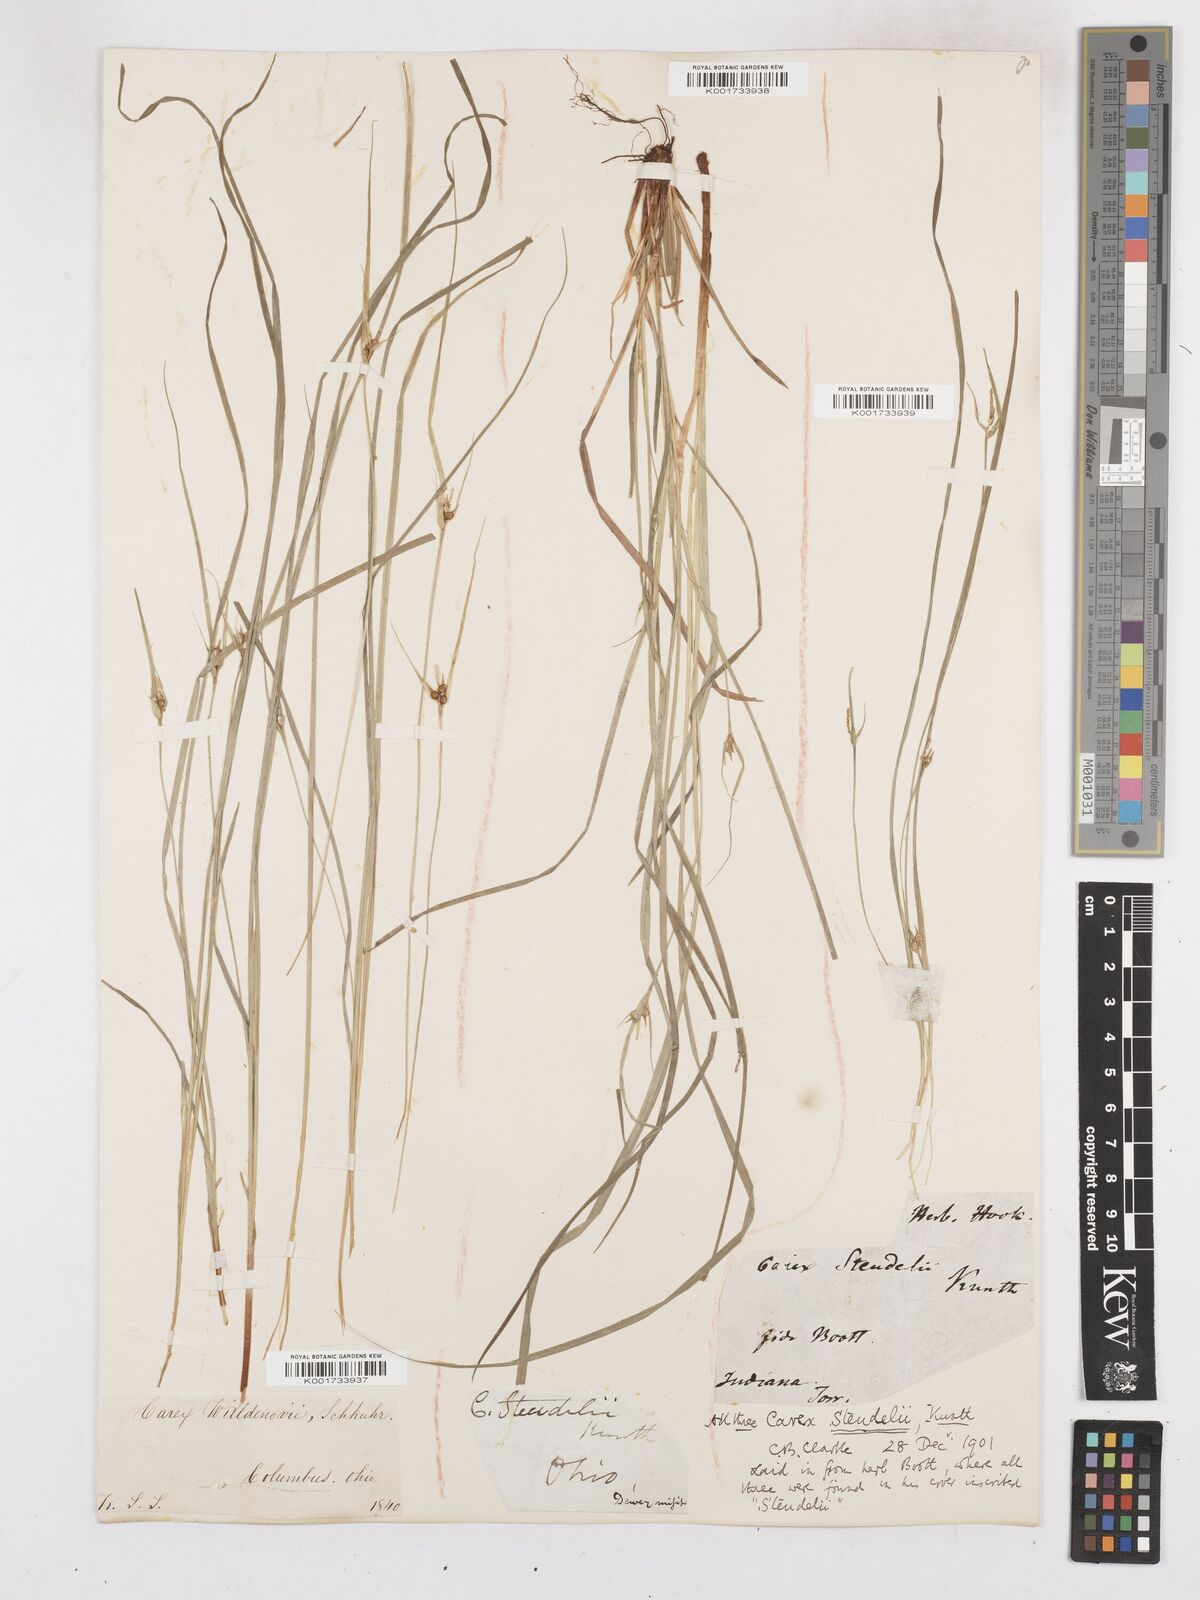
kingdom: Plantae
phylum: Tracheophyta
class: Liliopsida
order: Poales
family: Cyperaceae
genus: Carex
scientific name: Carex jamesii
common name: Grass sedge
